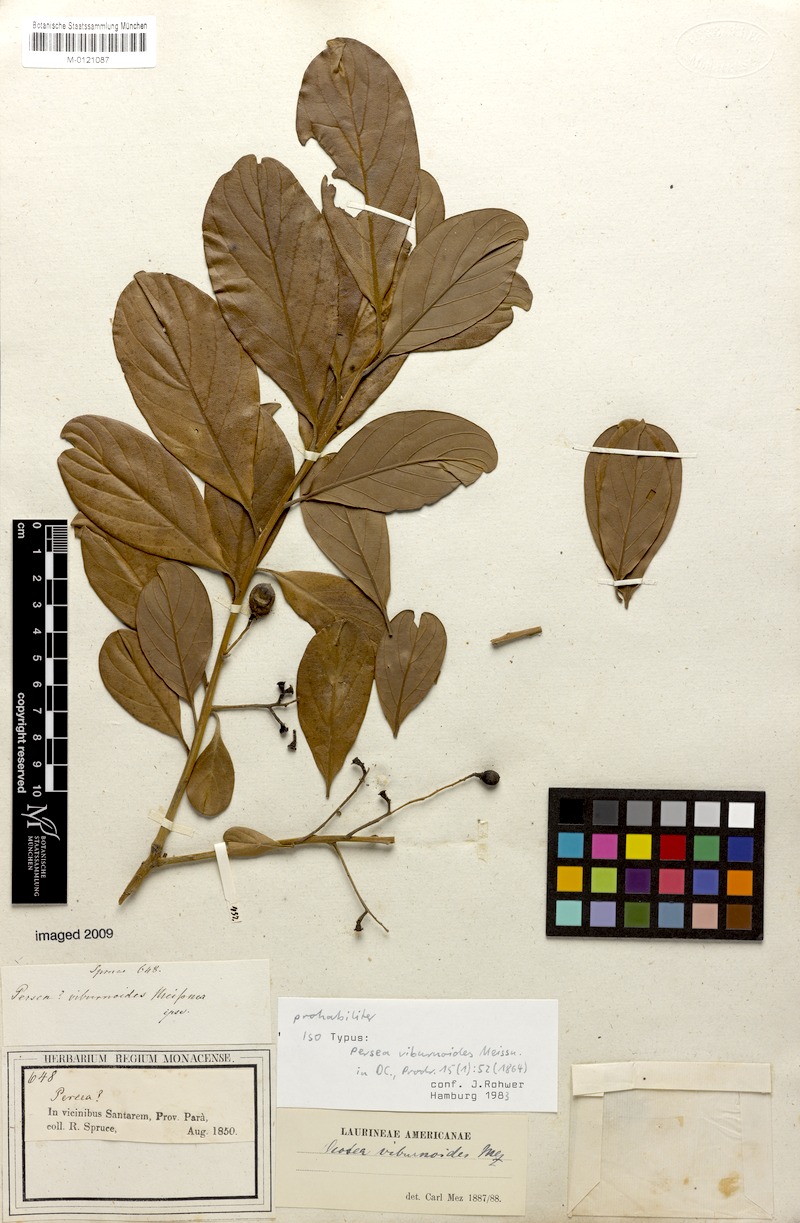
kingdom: Plantae
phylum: Tracheophyta
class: Magnoliopsida
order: Laurales
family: Lauraceae
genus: Ocotea
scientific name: Ocotea viburnoides
